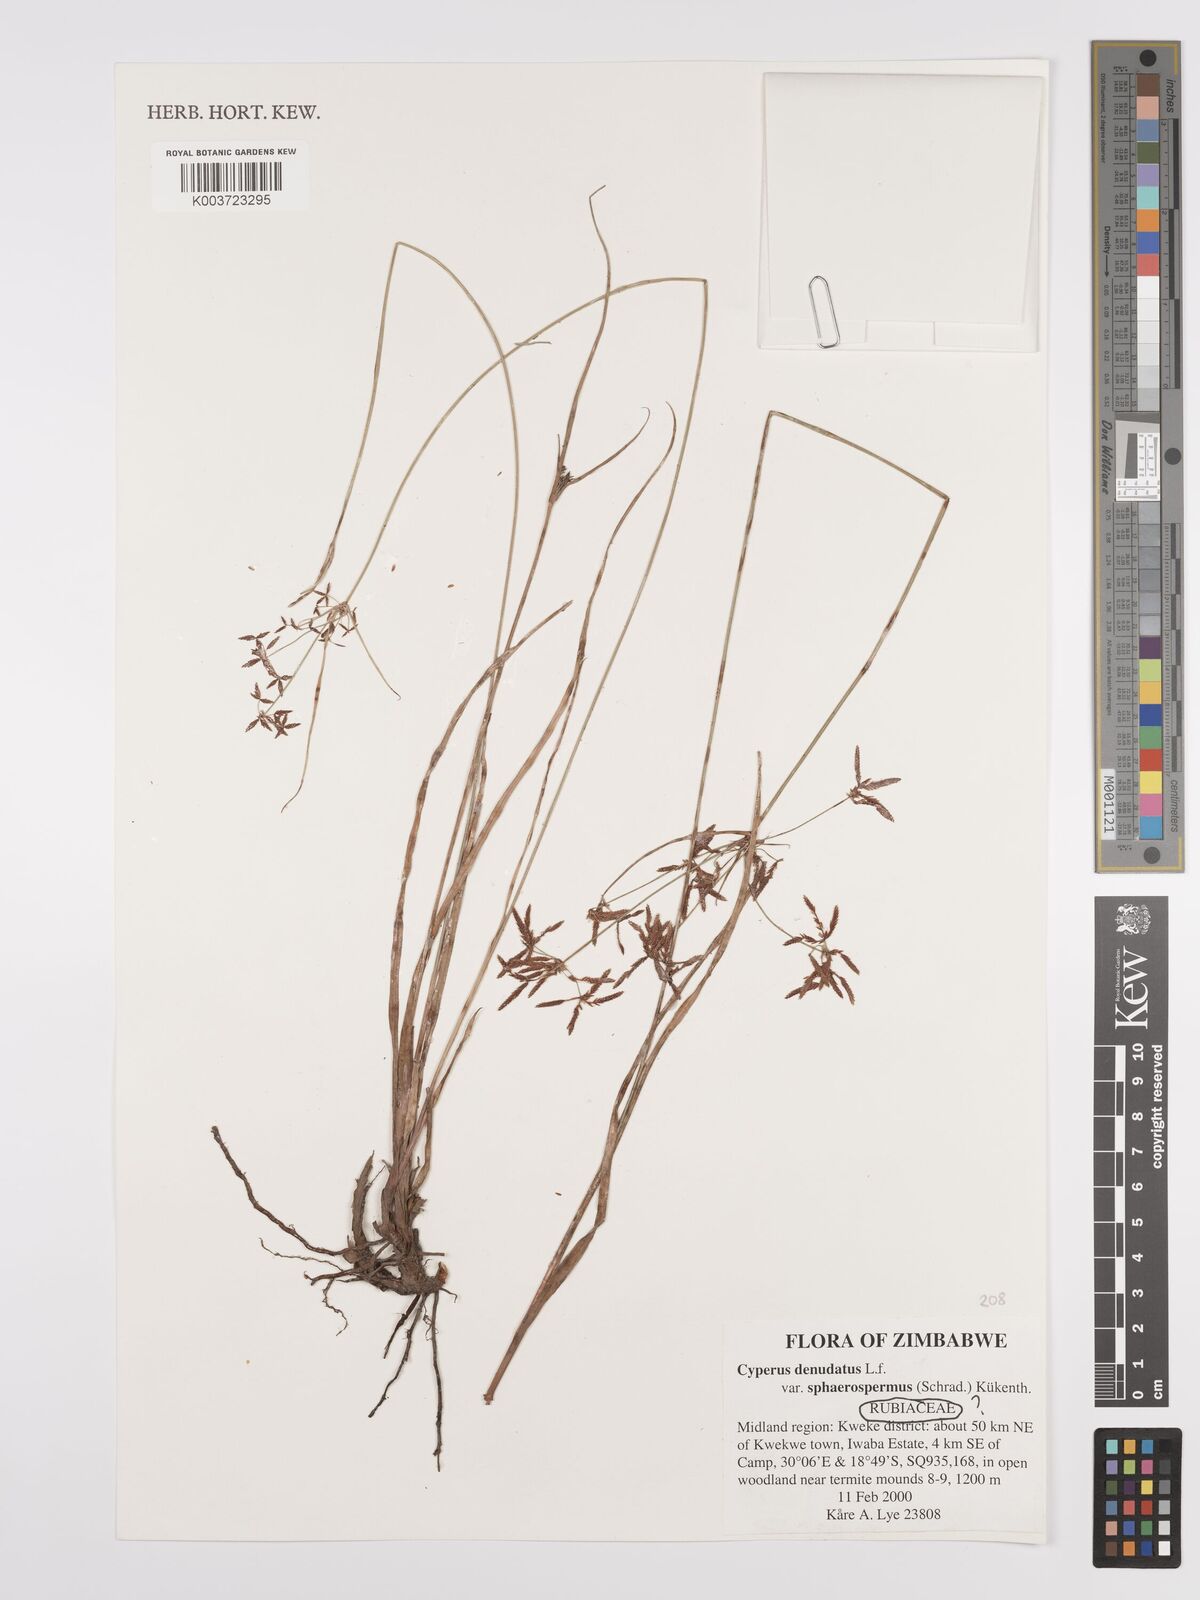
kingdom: Plantae
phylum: Tracheophyta
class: Liliopsida
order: Poales
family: Cyperaceae
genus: Cyperus
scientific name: Cyperus denudatus
